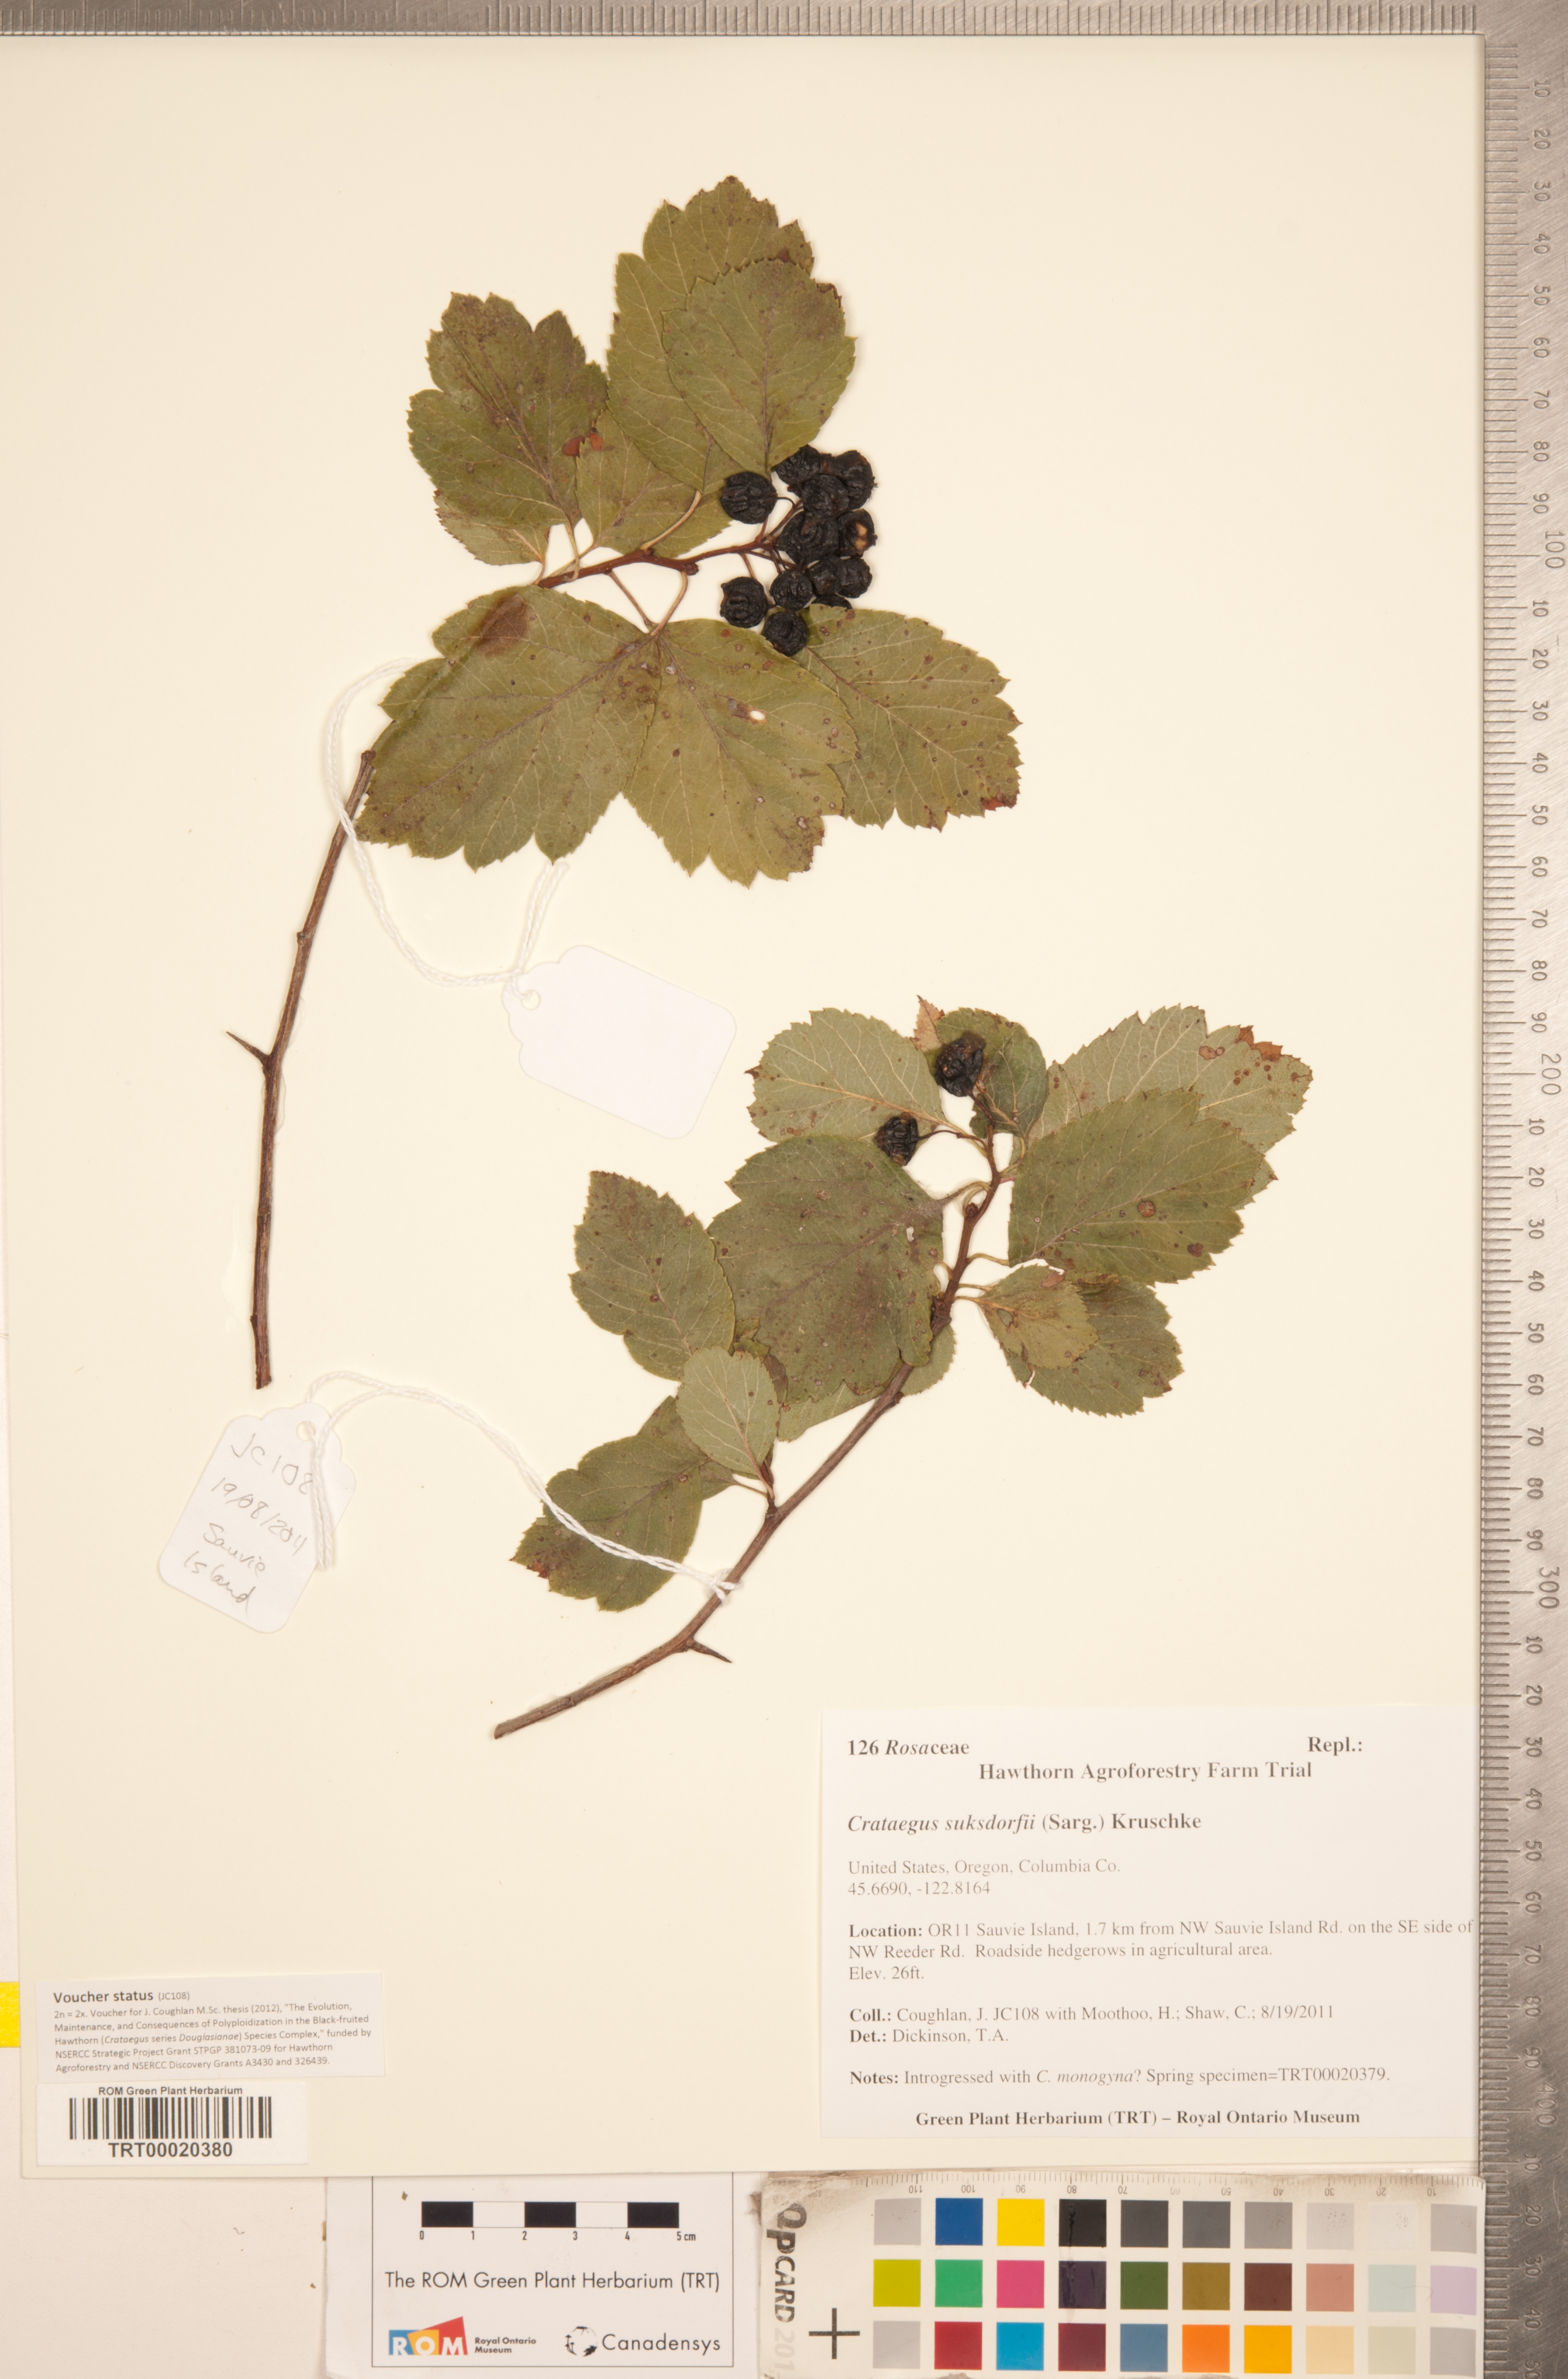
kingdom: Plantae
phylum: Tracheophyta
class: Magnoliopsida
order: Rosales
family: Rosaceae
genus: Crataegus
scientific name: Crataegus gaylussacia
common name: Huckleberry hawthorn
